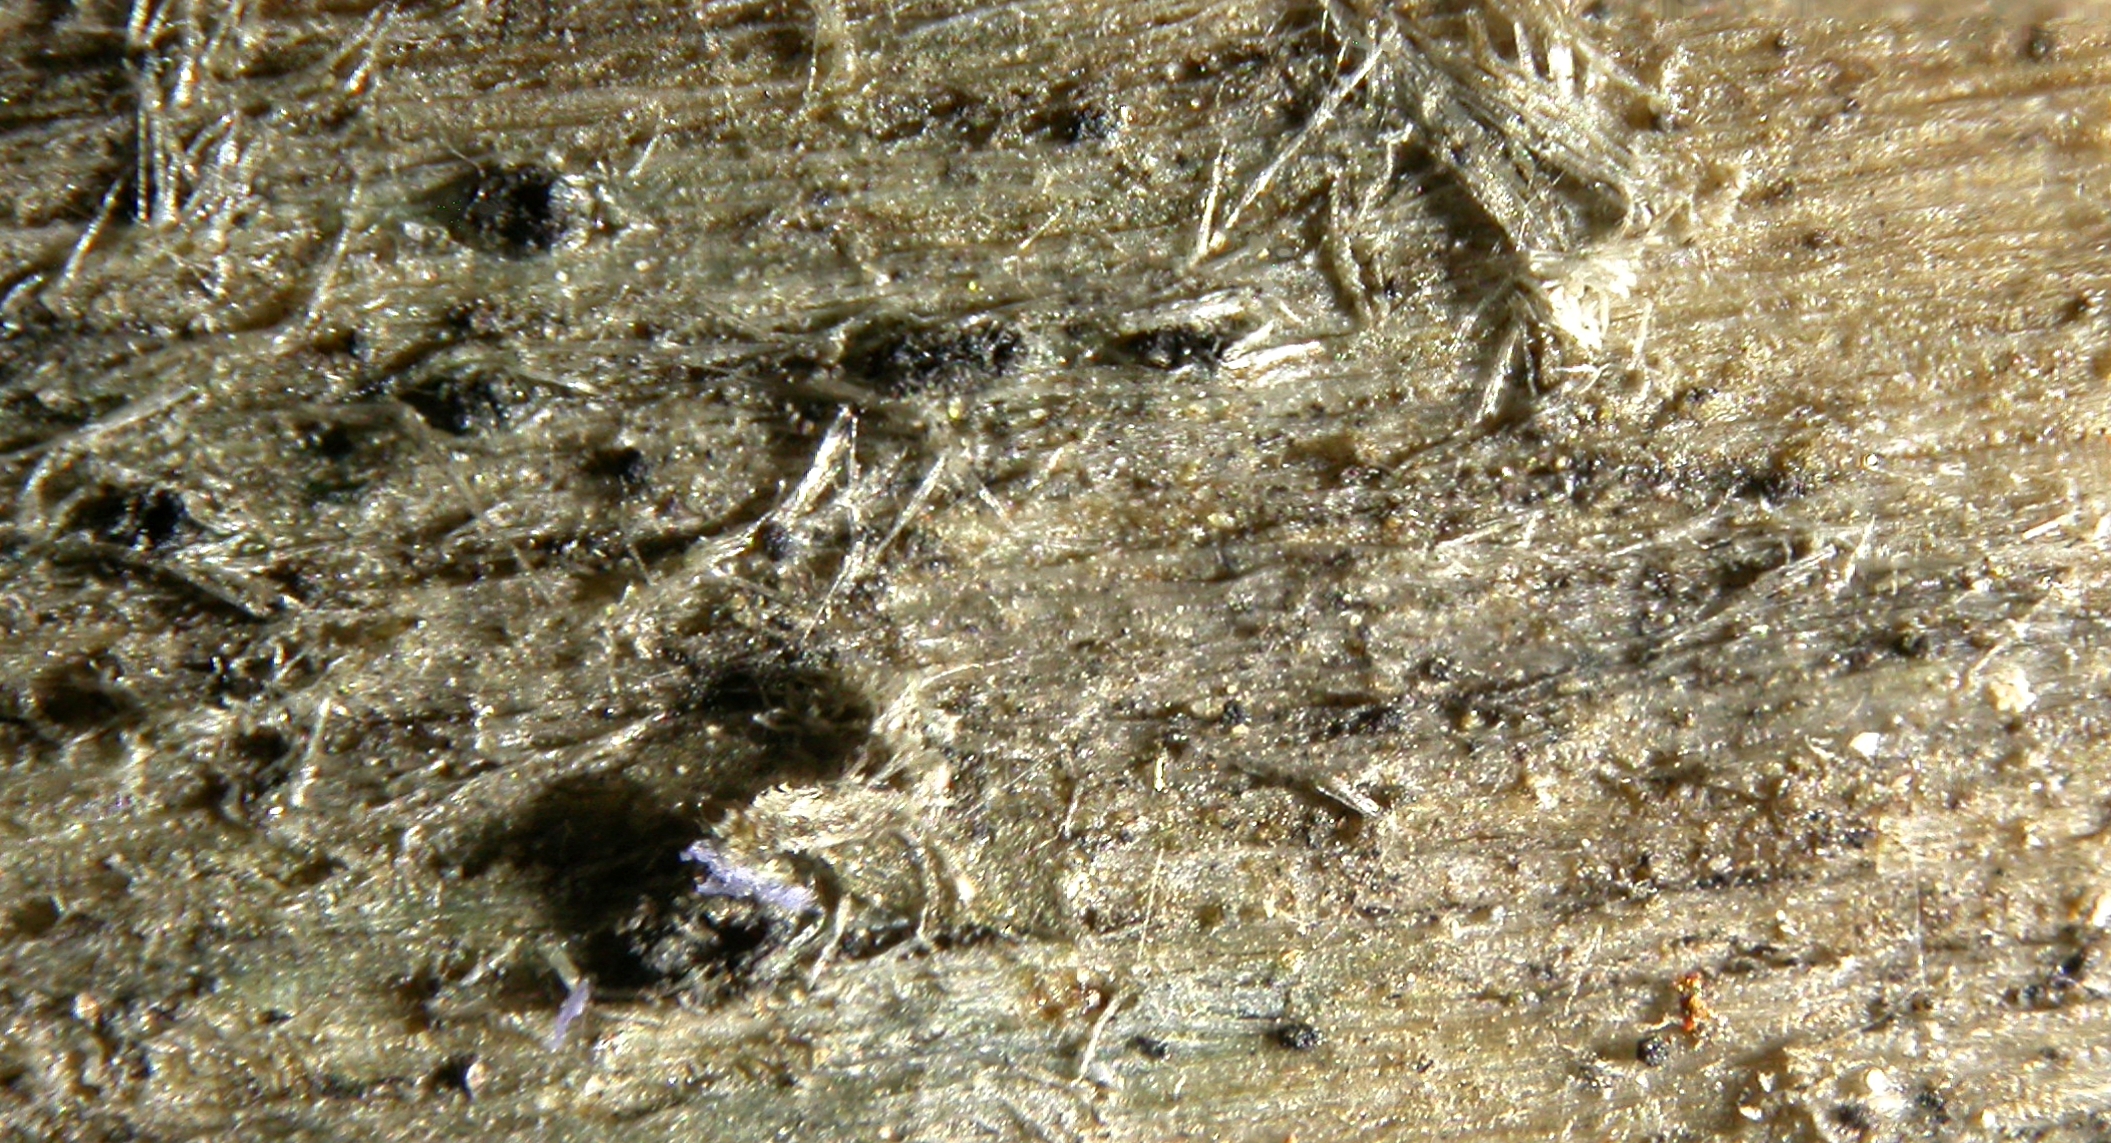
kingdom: Fungi
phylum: Ascomycota
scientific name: Ascomycota
